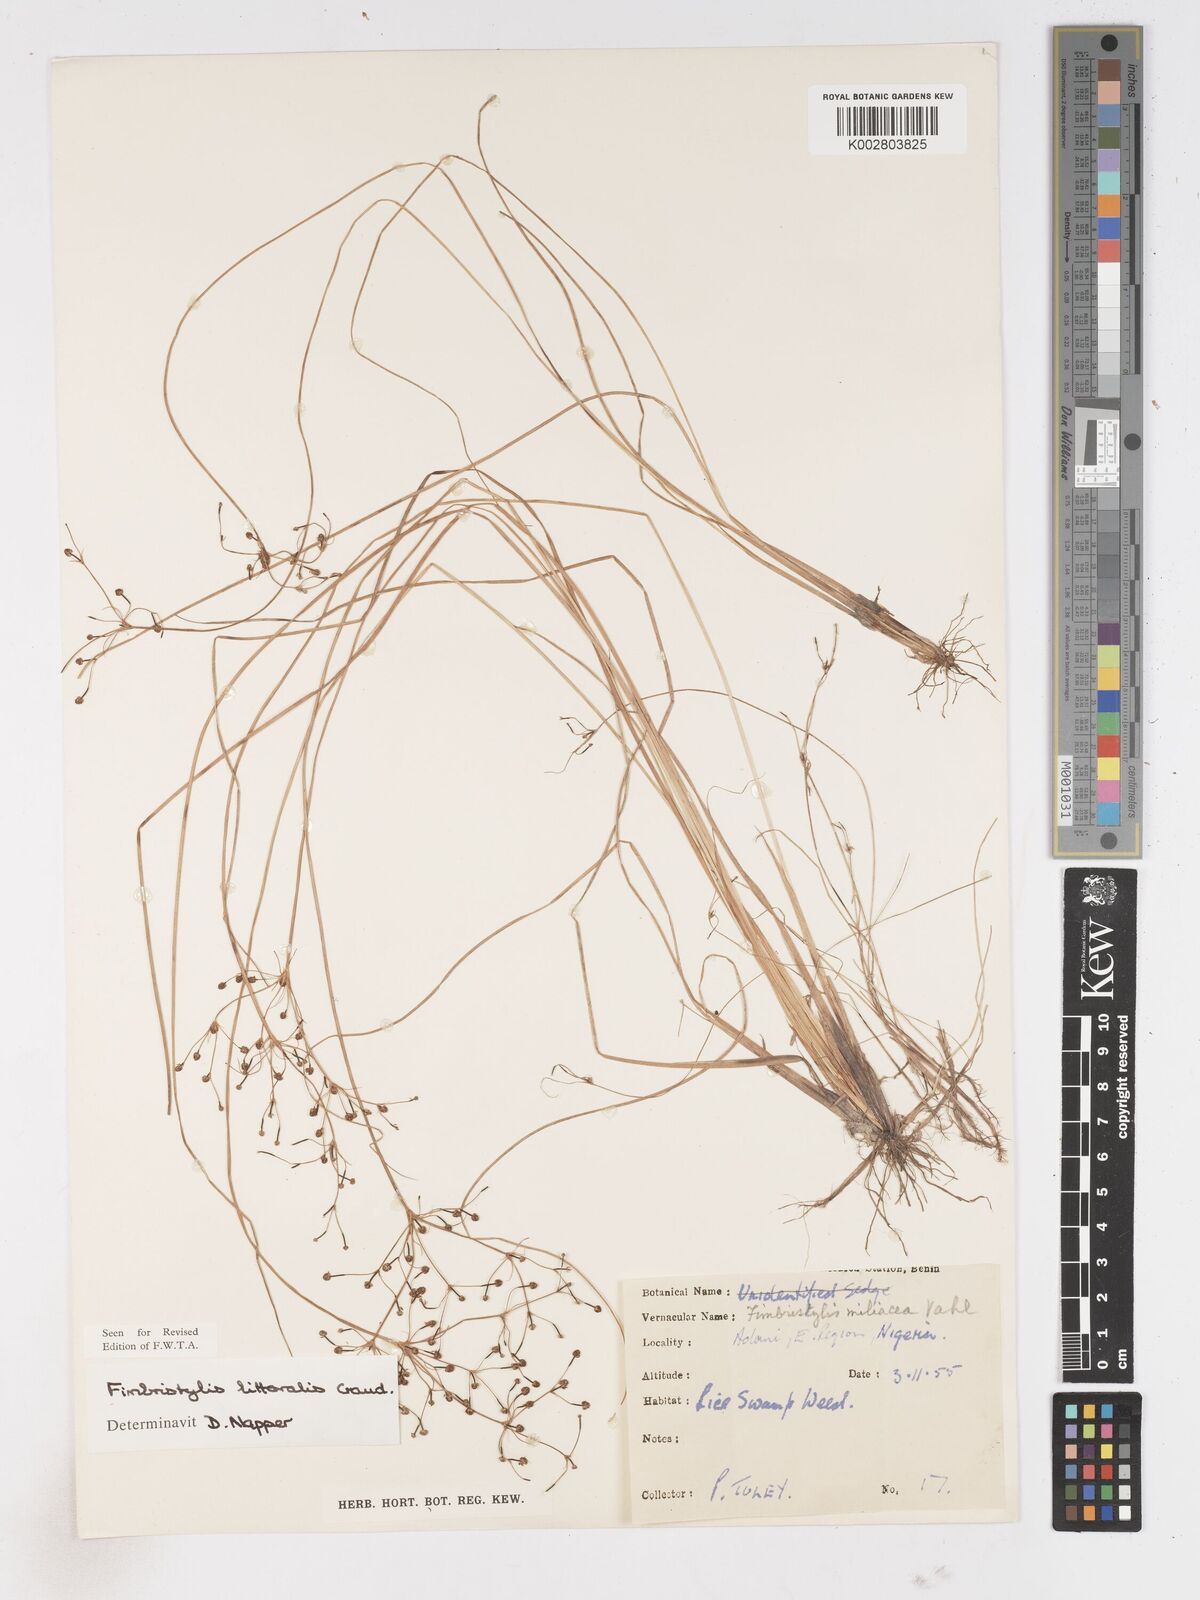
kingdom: Plantae
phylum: Tracheophyta
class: Liliopsida
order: Poales
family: Cyperaceae
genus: Fimbristylis
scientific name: Fimbristylis littoralis
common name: Fimbry
